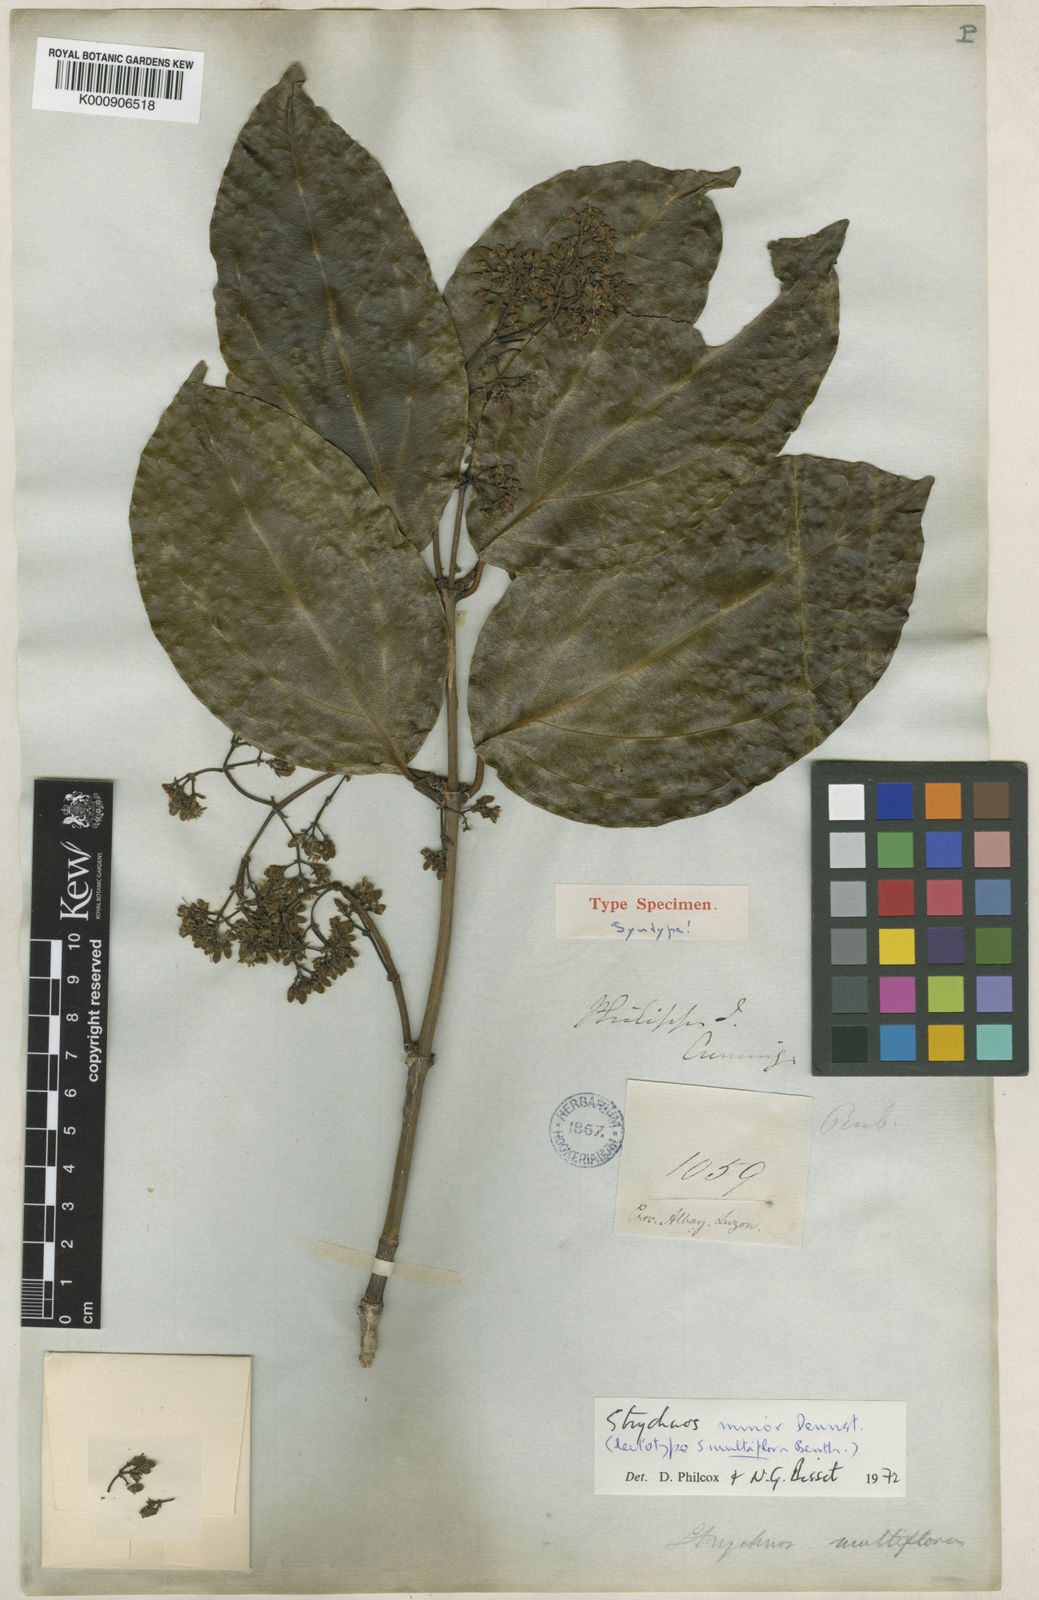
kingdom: Plantae
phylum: Tracheophyta
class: Magnoliopsida
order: Gentianales
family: Loganiaceae
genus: Strychnos
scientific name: Strychnos minor
